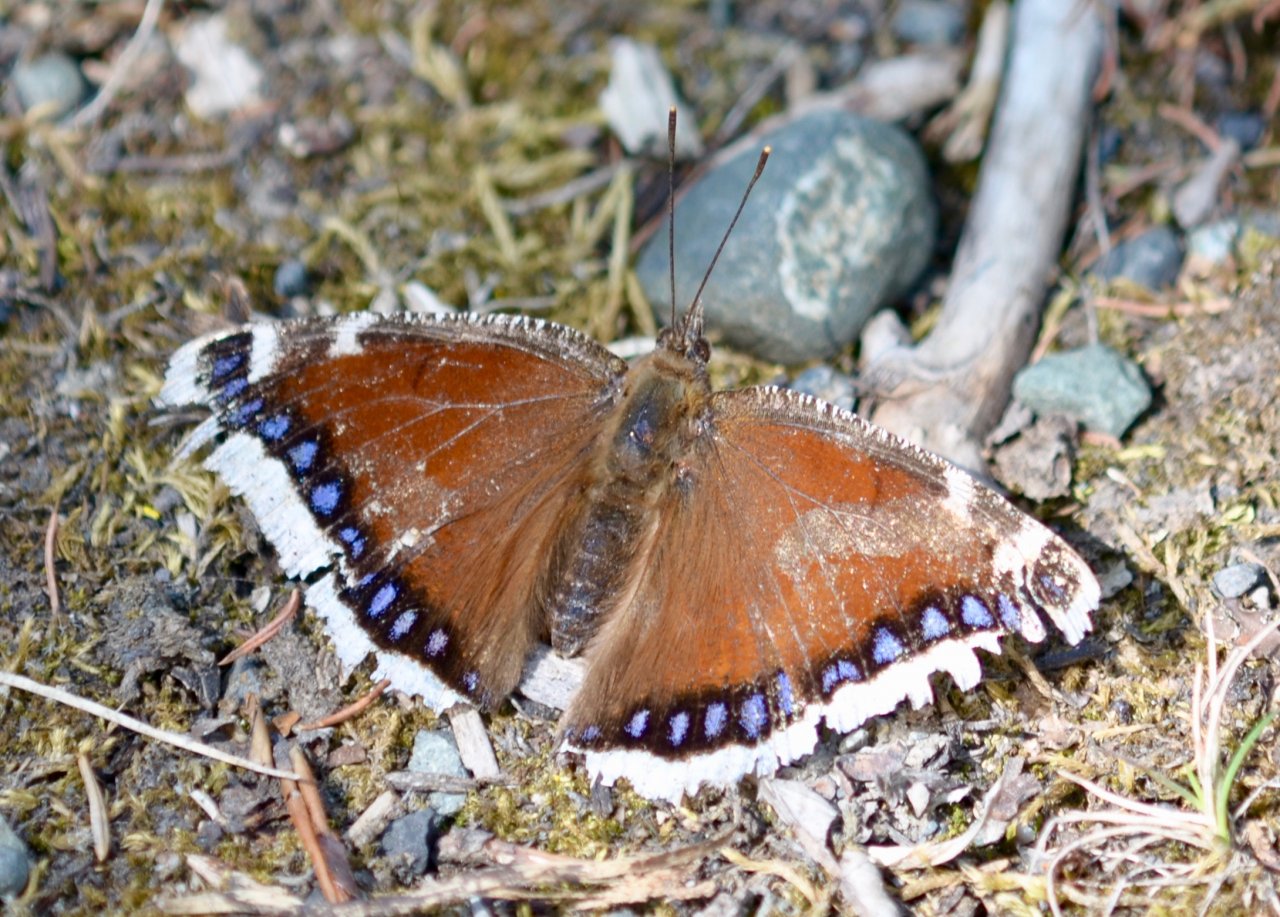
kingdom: Animalia
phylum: Arthropoda
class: Insecta
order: Lepidoptera
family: Nymphalidae
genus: Nymphalis
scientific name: Nymphalis antiopa
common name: Mourning Cloak
